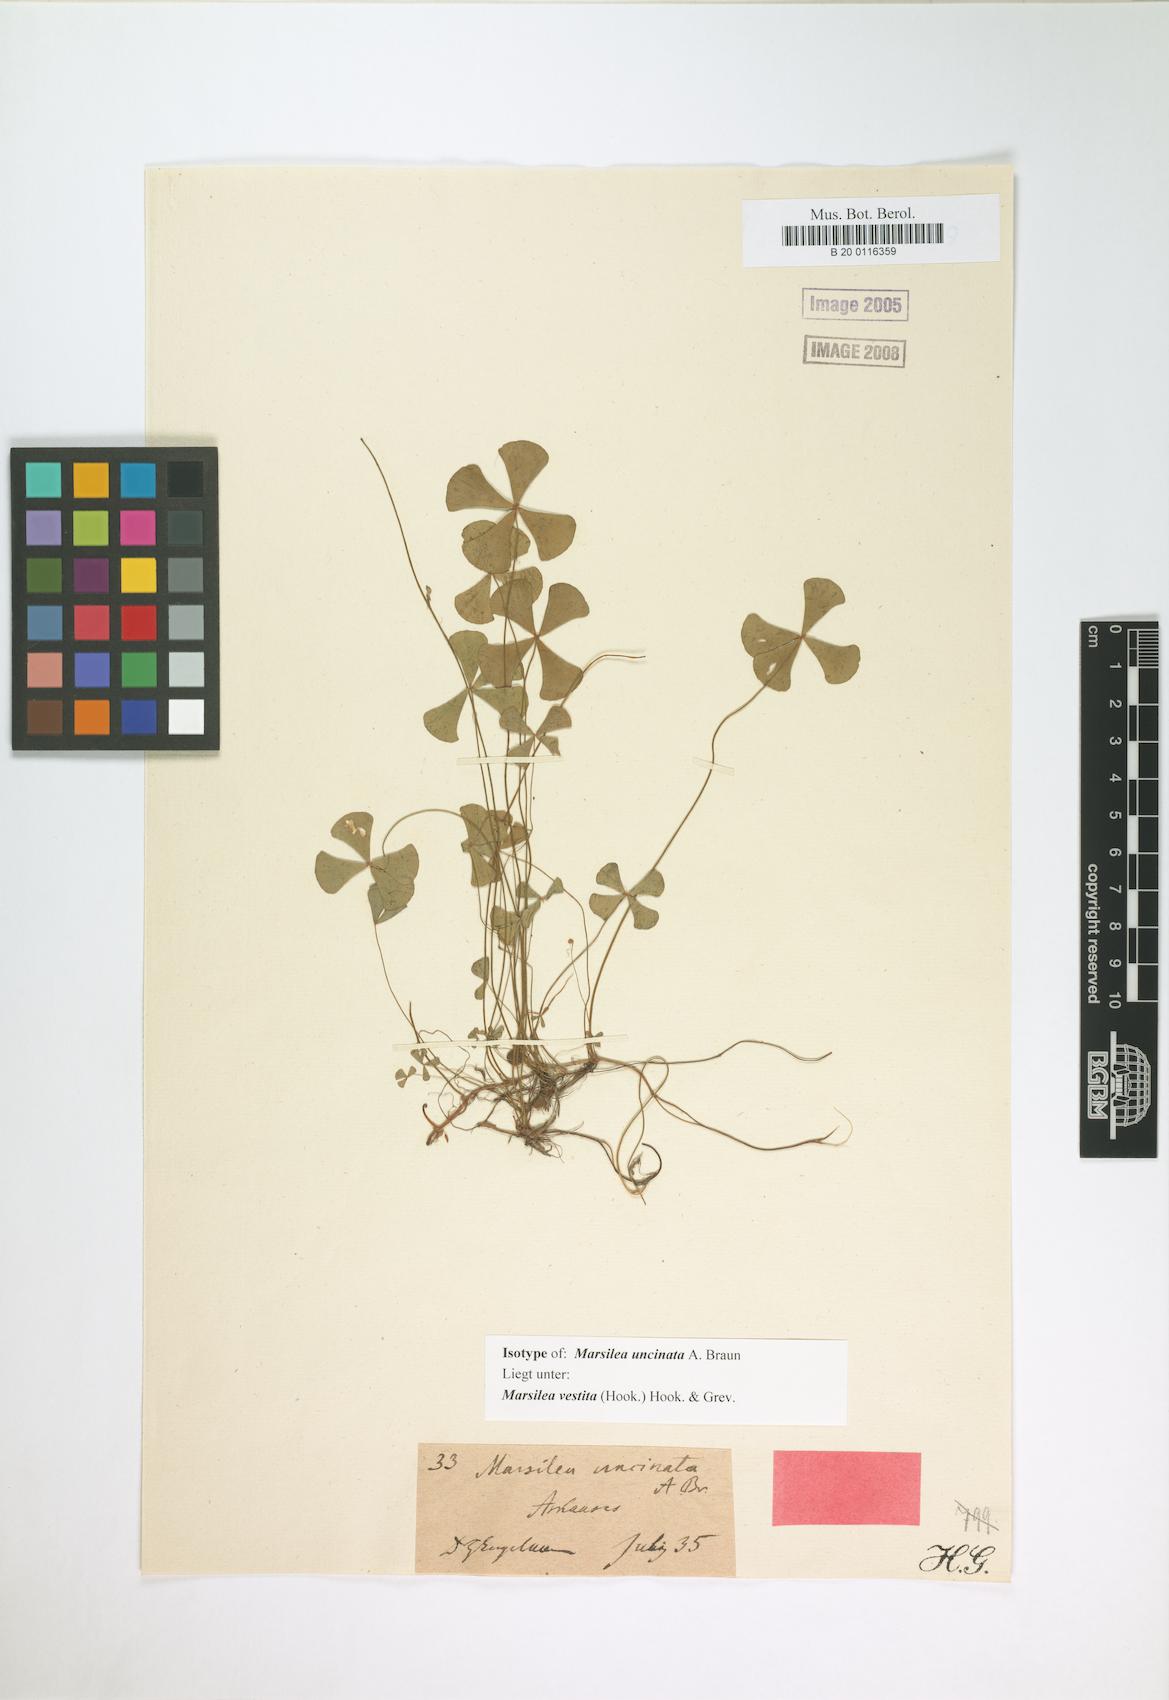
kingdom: Plantae
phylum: Tracheophyta
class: Polypodiopsida
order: Salviniales
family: Marsileaceae
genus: Marsilea
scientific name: Marsilea vestita
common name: Hooked-pepperwort
